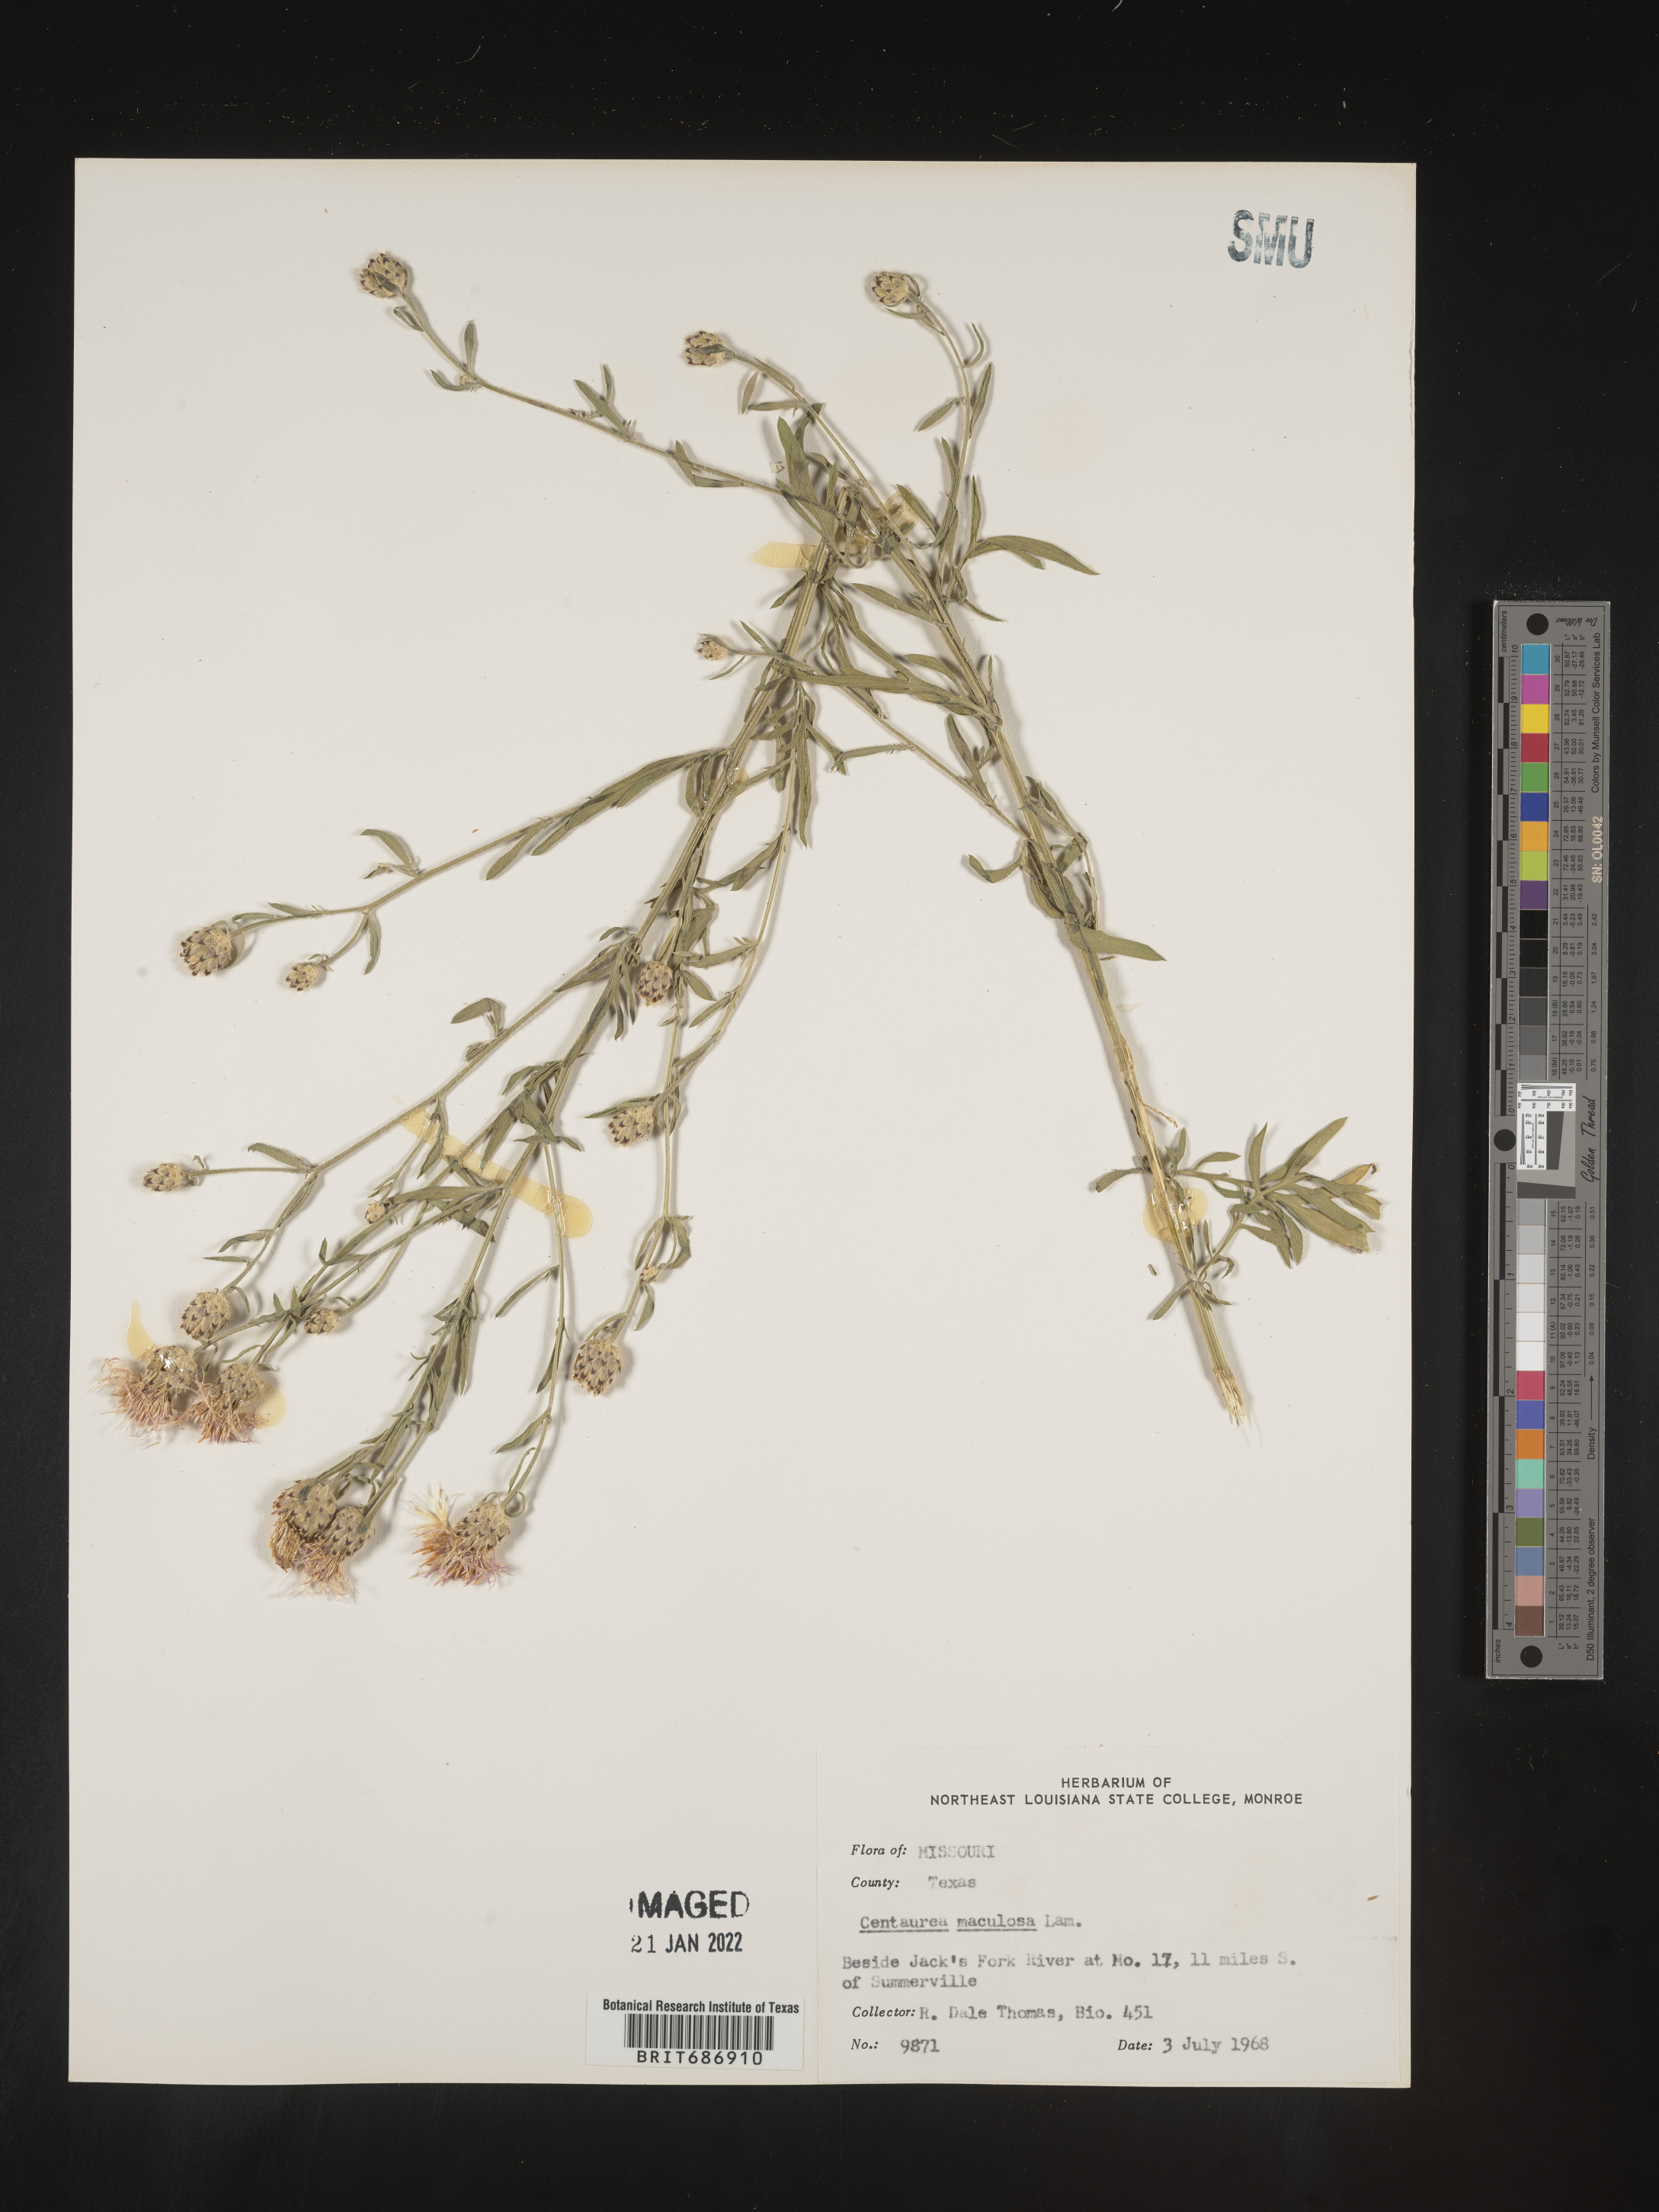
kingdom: Plantae
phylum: Tracheophyta
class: Magnoliopsida
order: Asterales
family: Asteraceae
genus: Centaurea
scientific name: Centaurea stoebe
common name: Spotted knapweed
